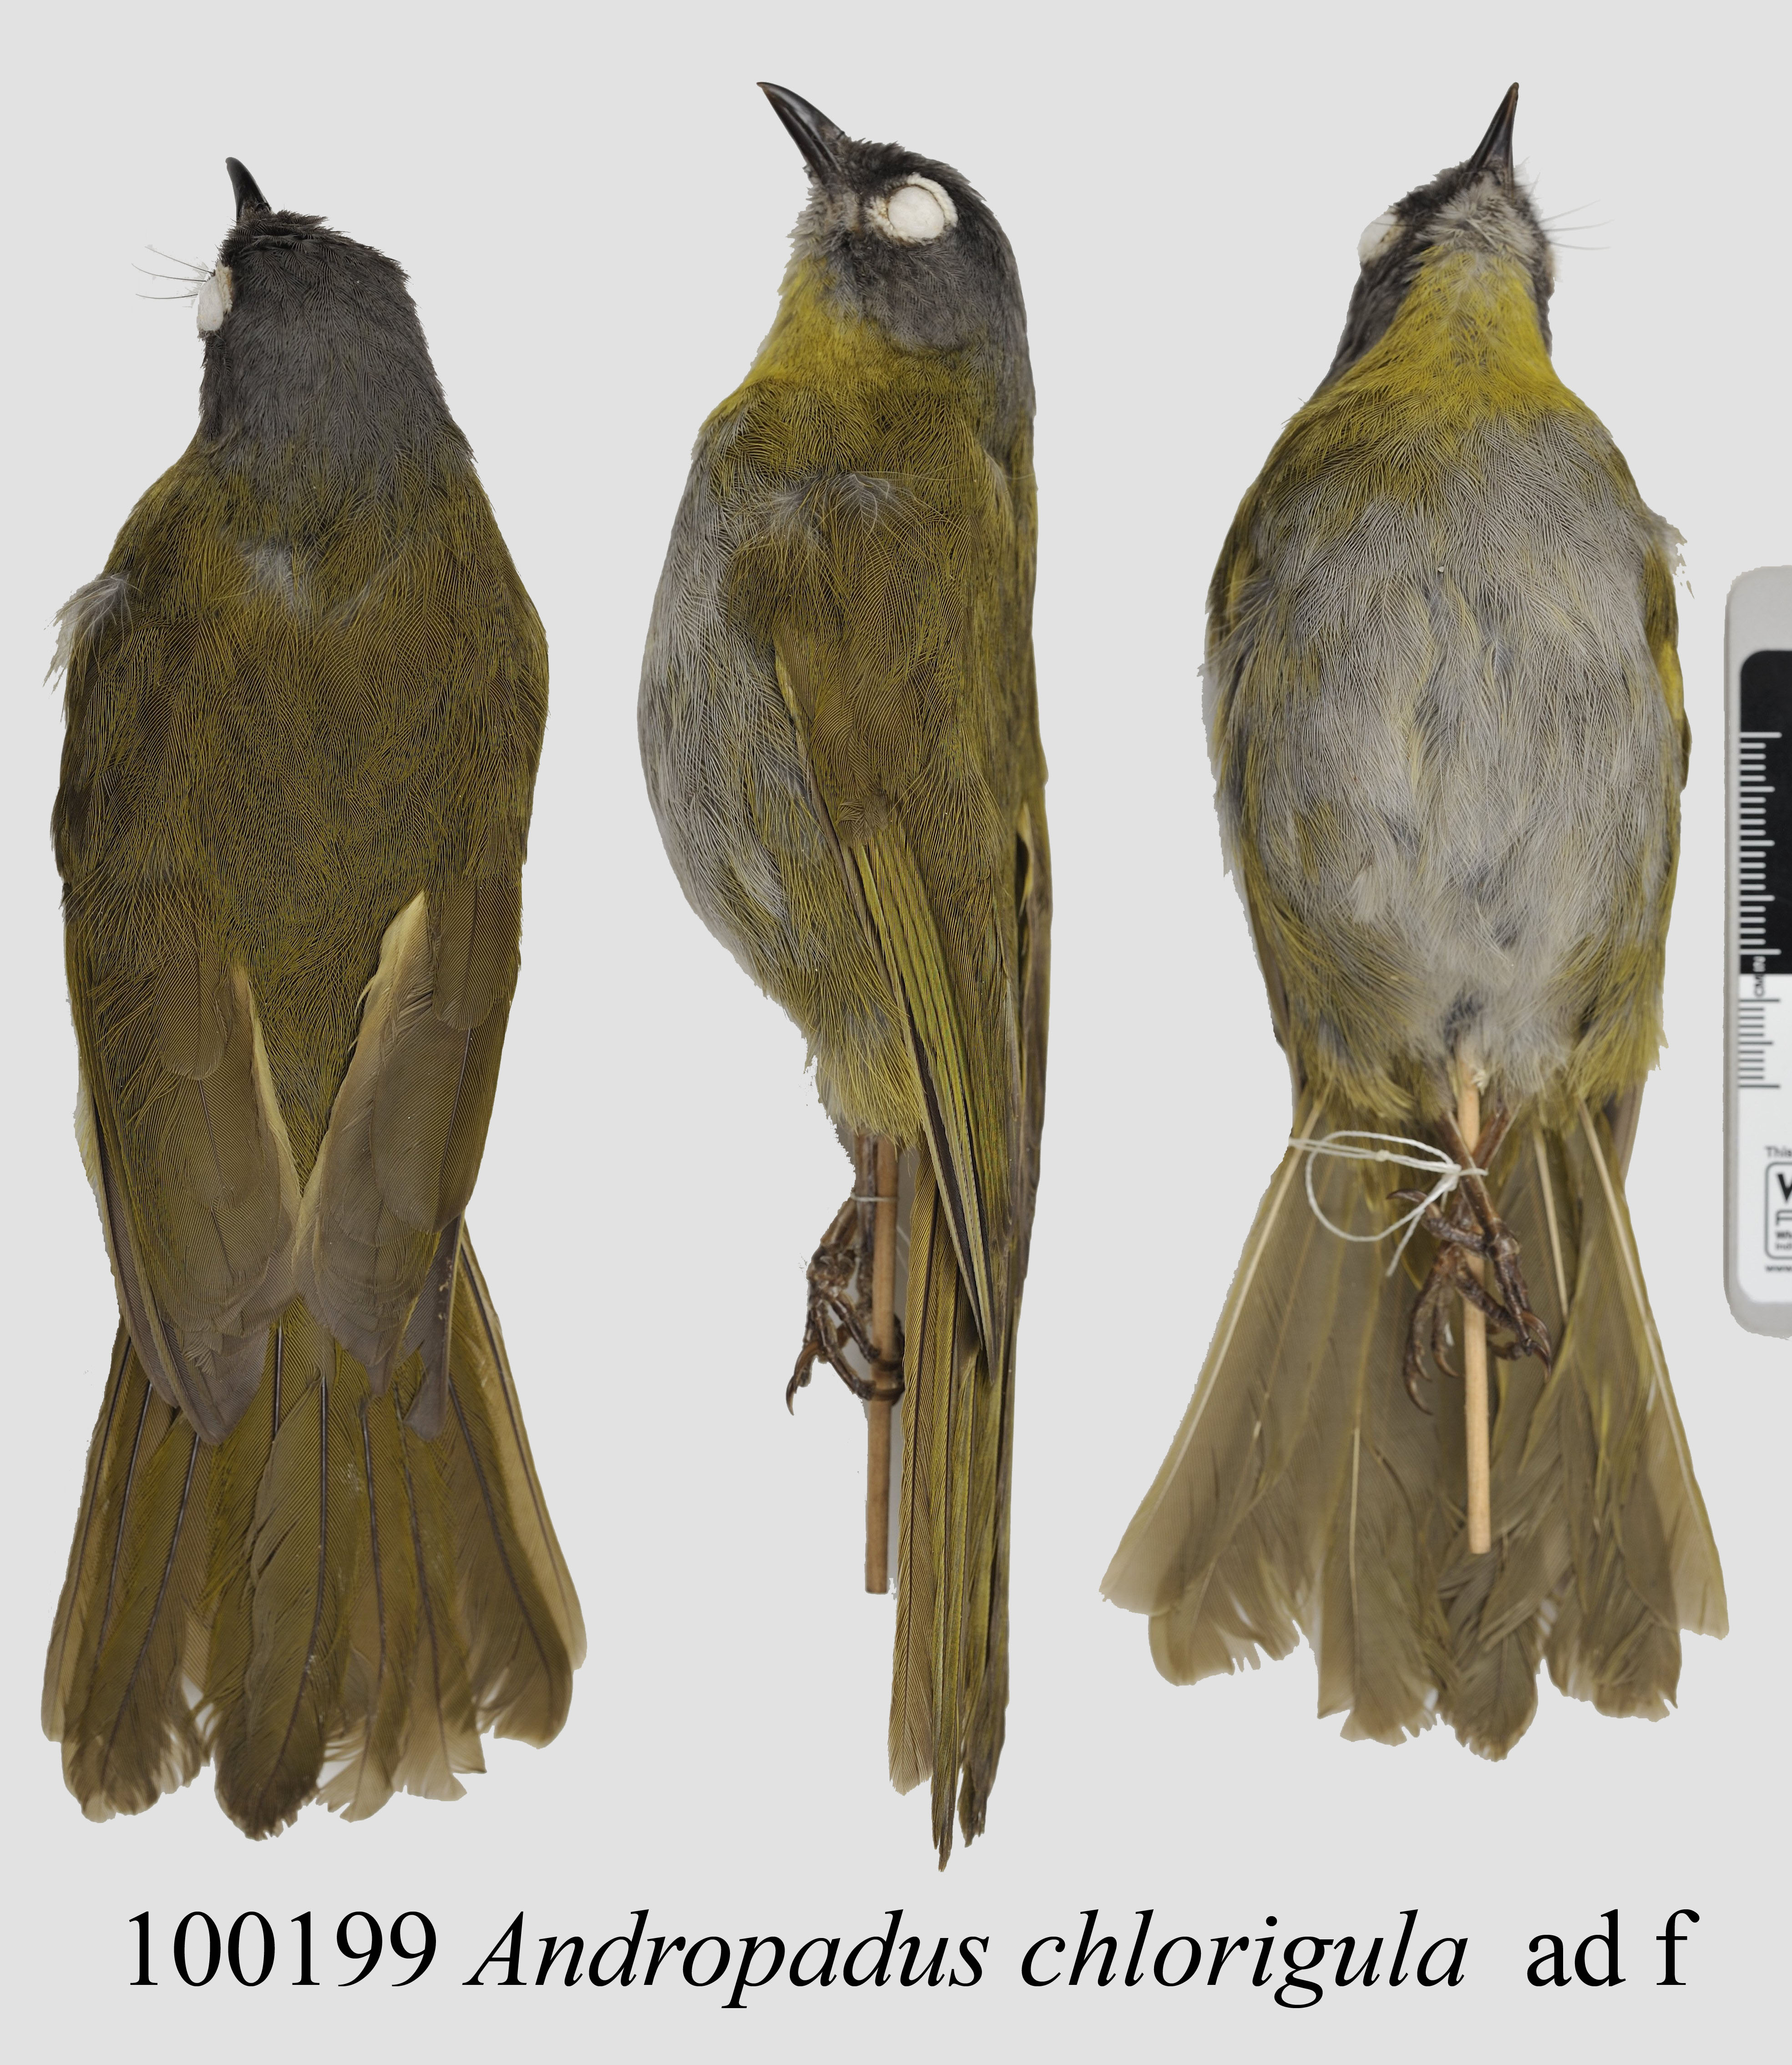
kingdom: Animalia
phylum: Chordata
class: Aves
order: Passeriformes
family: Pycnonotidae
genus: Arizelocichla
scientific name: Arizelocichla chlorigula
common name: Yellow-throated greenbul
